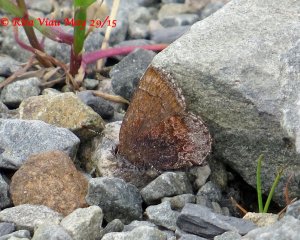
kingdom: Animalia
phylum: Arthropoda
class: Insecta
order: Lepidoptera
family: Lycaenidae
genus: Callophrys
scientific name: Callophrys polios
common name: Hoary Elfin
